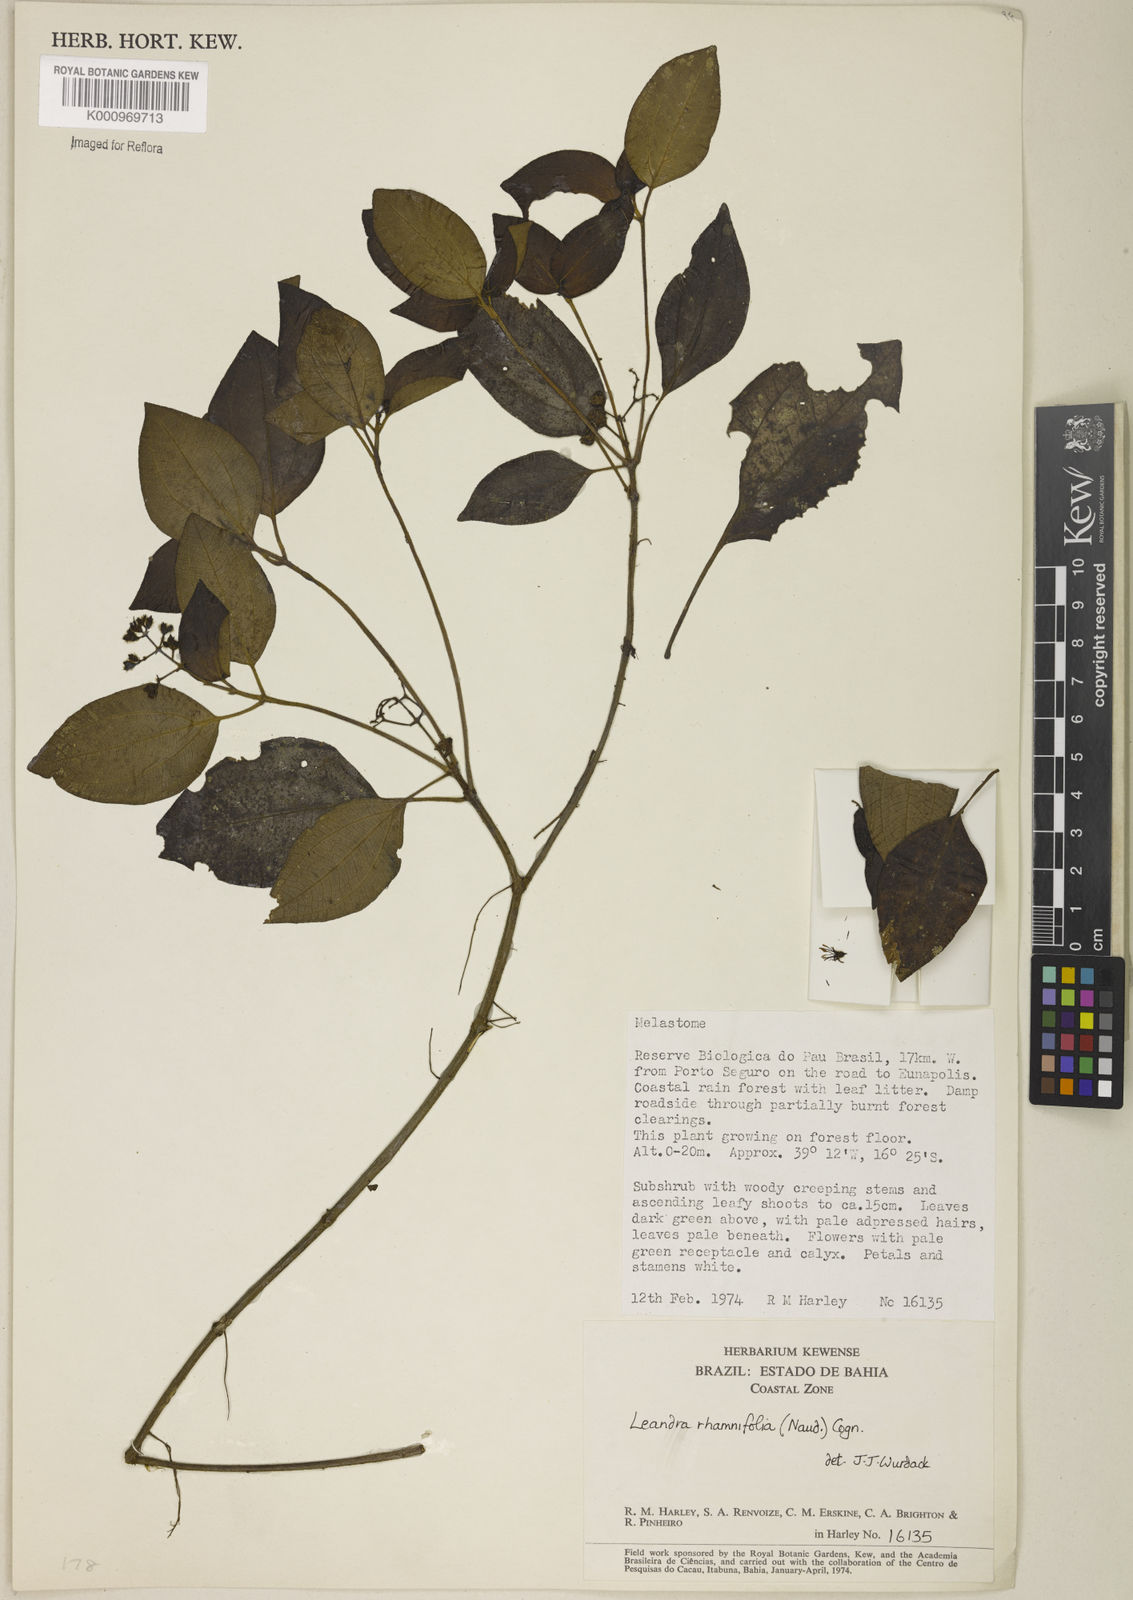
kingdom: Plantae
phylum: Tracheophyta
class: Magnoliopsida
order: Myrtales
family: Melastomataceae
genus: Miconia
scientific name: Miconia rhamnifolia
